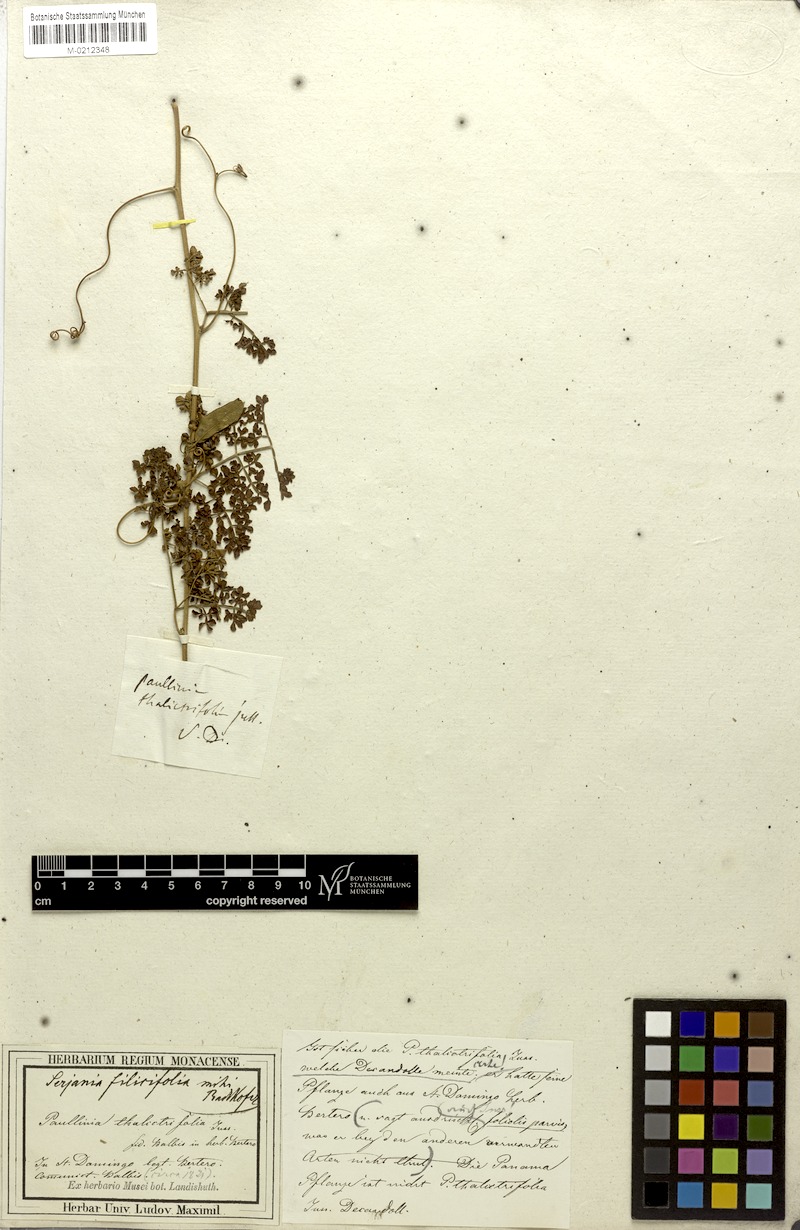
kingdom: Plantae
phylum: Tracheophyta
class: Magnoliopsida
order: Sapindales
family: Sapindaceae
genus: Serjania
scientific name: Serjania filicifolia
